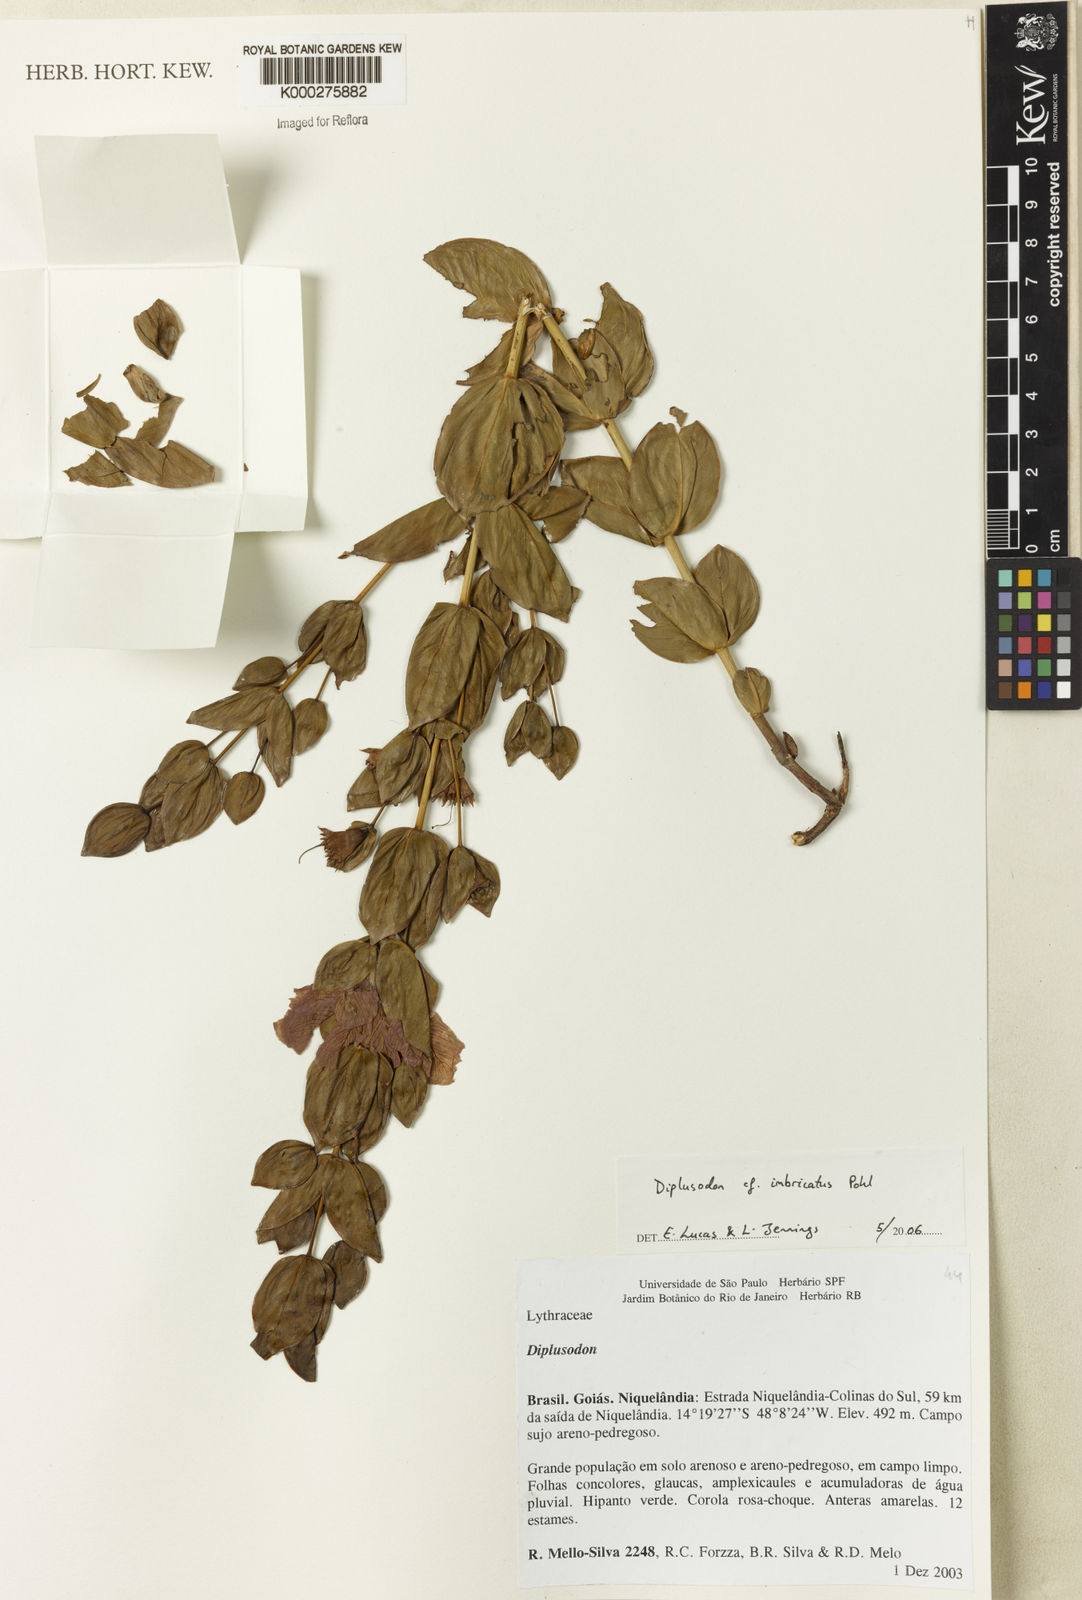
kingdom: Plantae
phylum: Tracheophyta
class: Magnoliopsida
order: Myrtales
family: Lythraceae
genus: Diplusodon
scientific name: Diplusodon imbricatus
